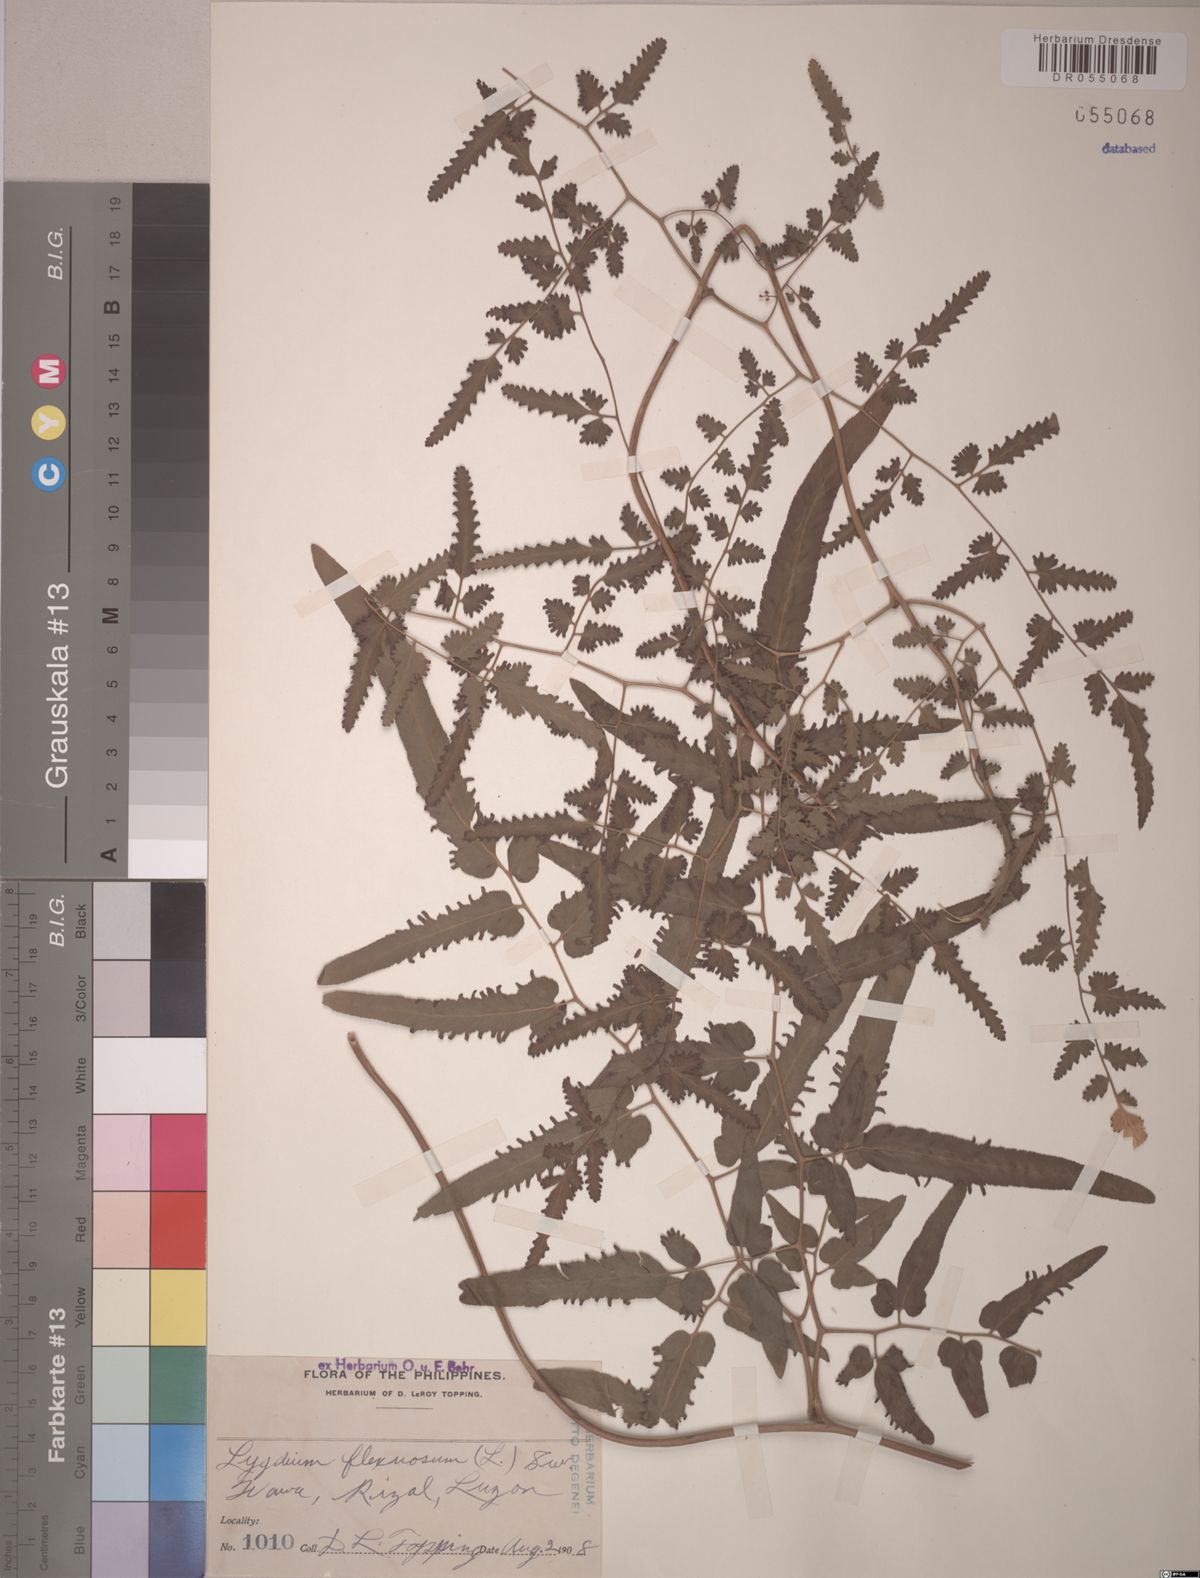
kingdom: Plantae
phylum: Tracheophyta
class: Polypodiopsida
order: Schizaeales
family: Lygodiaceae
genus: Lygodium
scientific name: Lygodium flexuosum
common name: Maidenhair creeper
